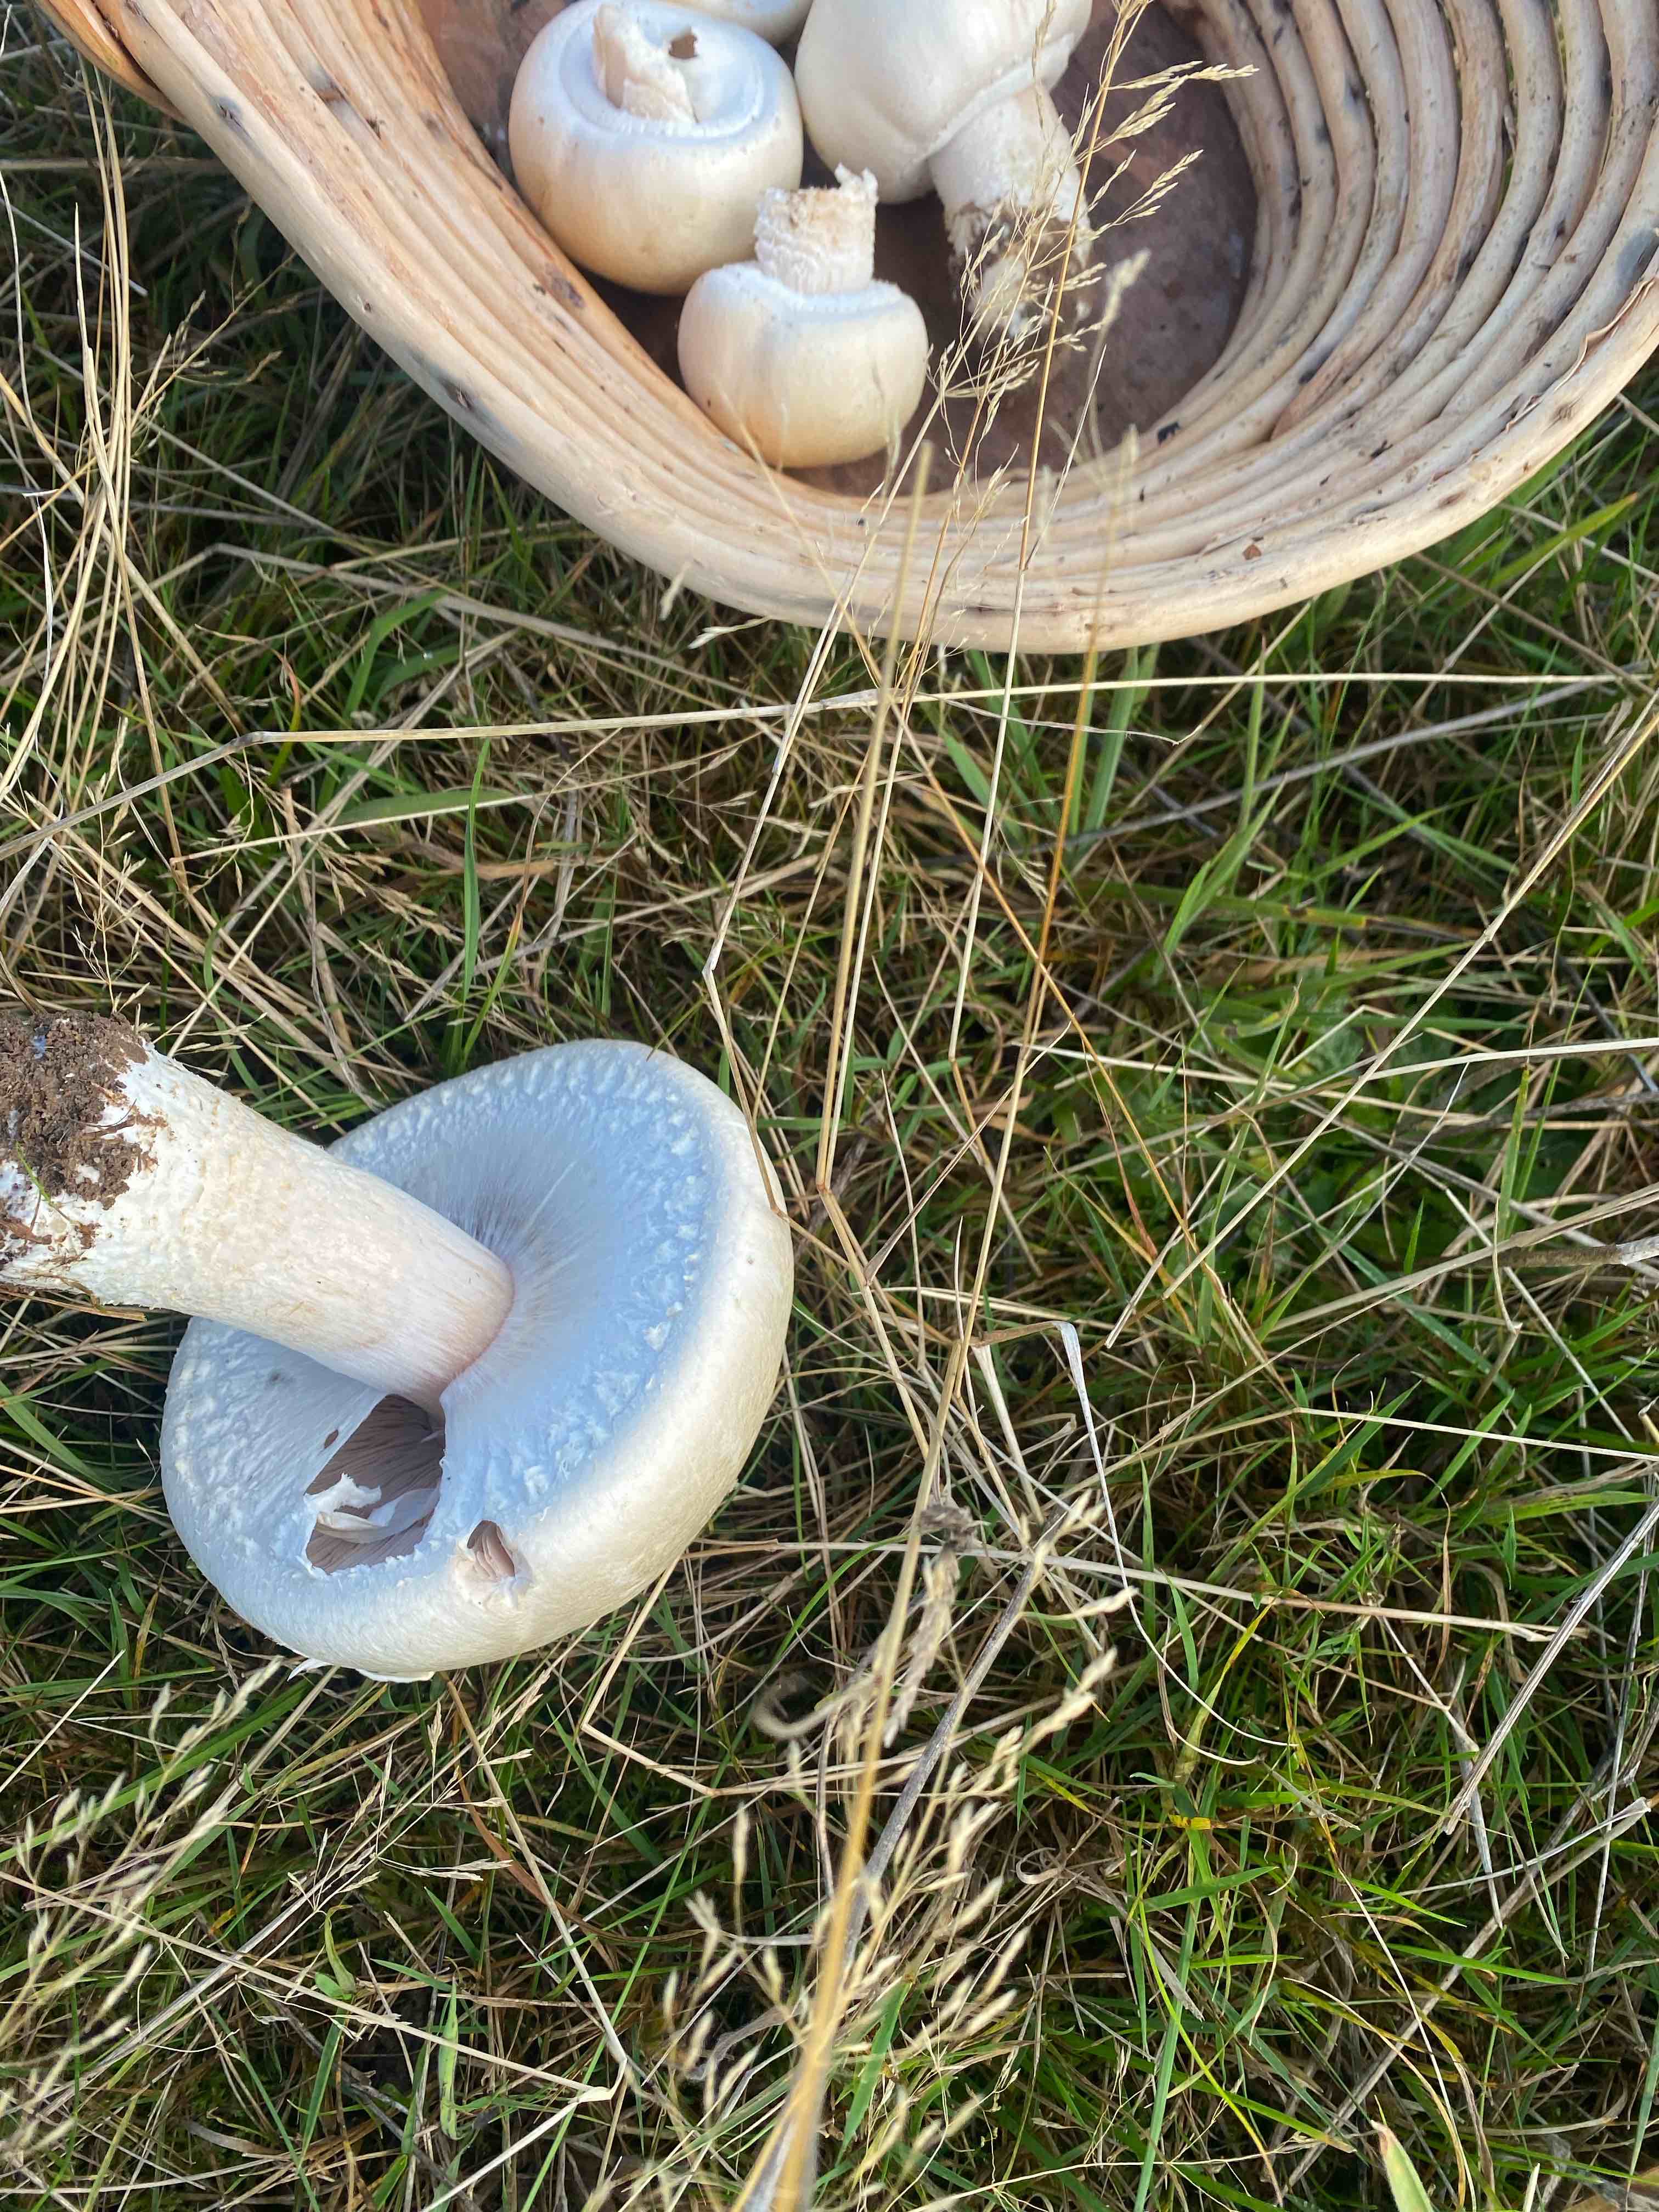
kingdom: Fungi
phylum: Basidiomycota
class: Agaricomycetes
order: Agaricales
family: Agaricaceae
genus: Agaricus
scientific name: Agaricus campestris
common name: mark-champignon
